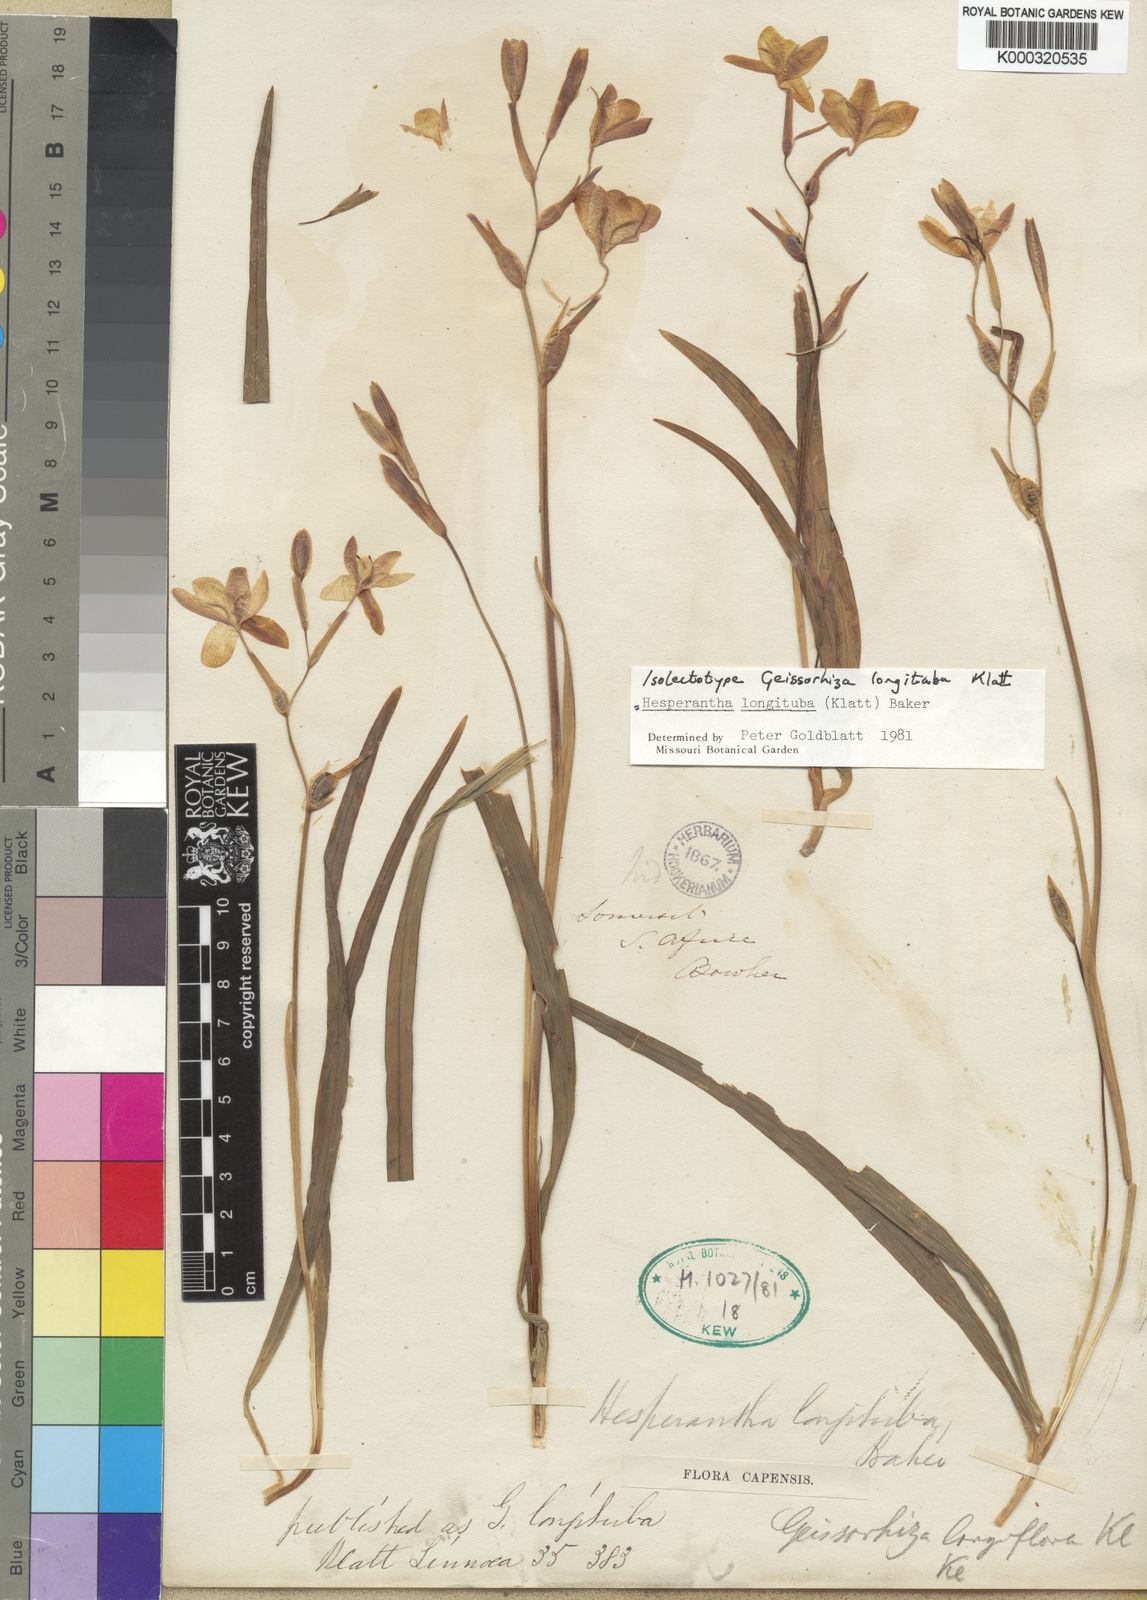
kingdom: Plantae
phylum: Tracheophyta
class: Liliopsida
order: Asparagales
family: Iridaceae
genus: Hesperantha
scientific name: Hesperantha longituba
